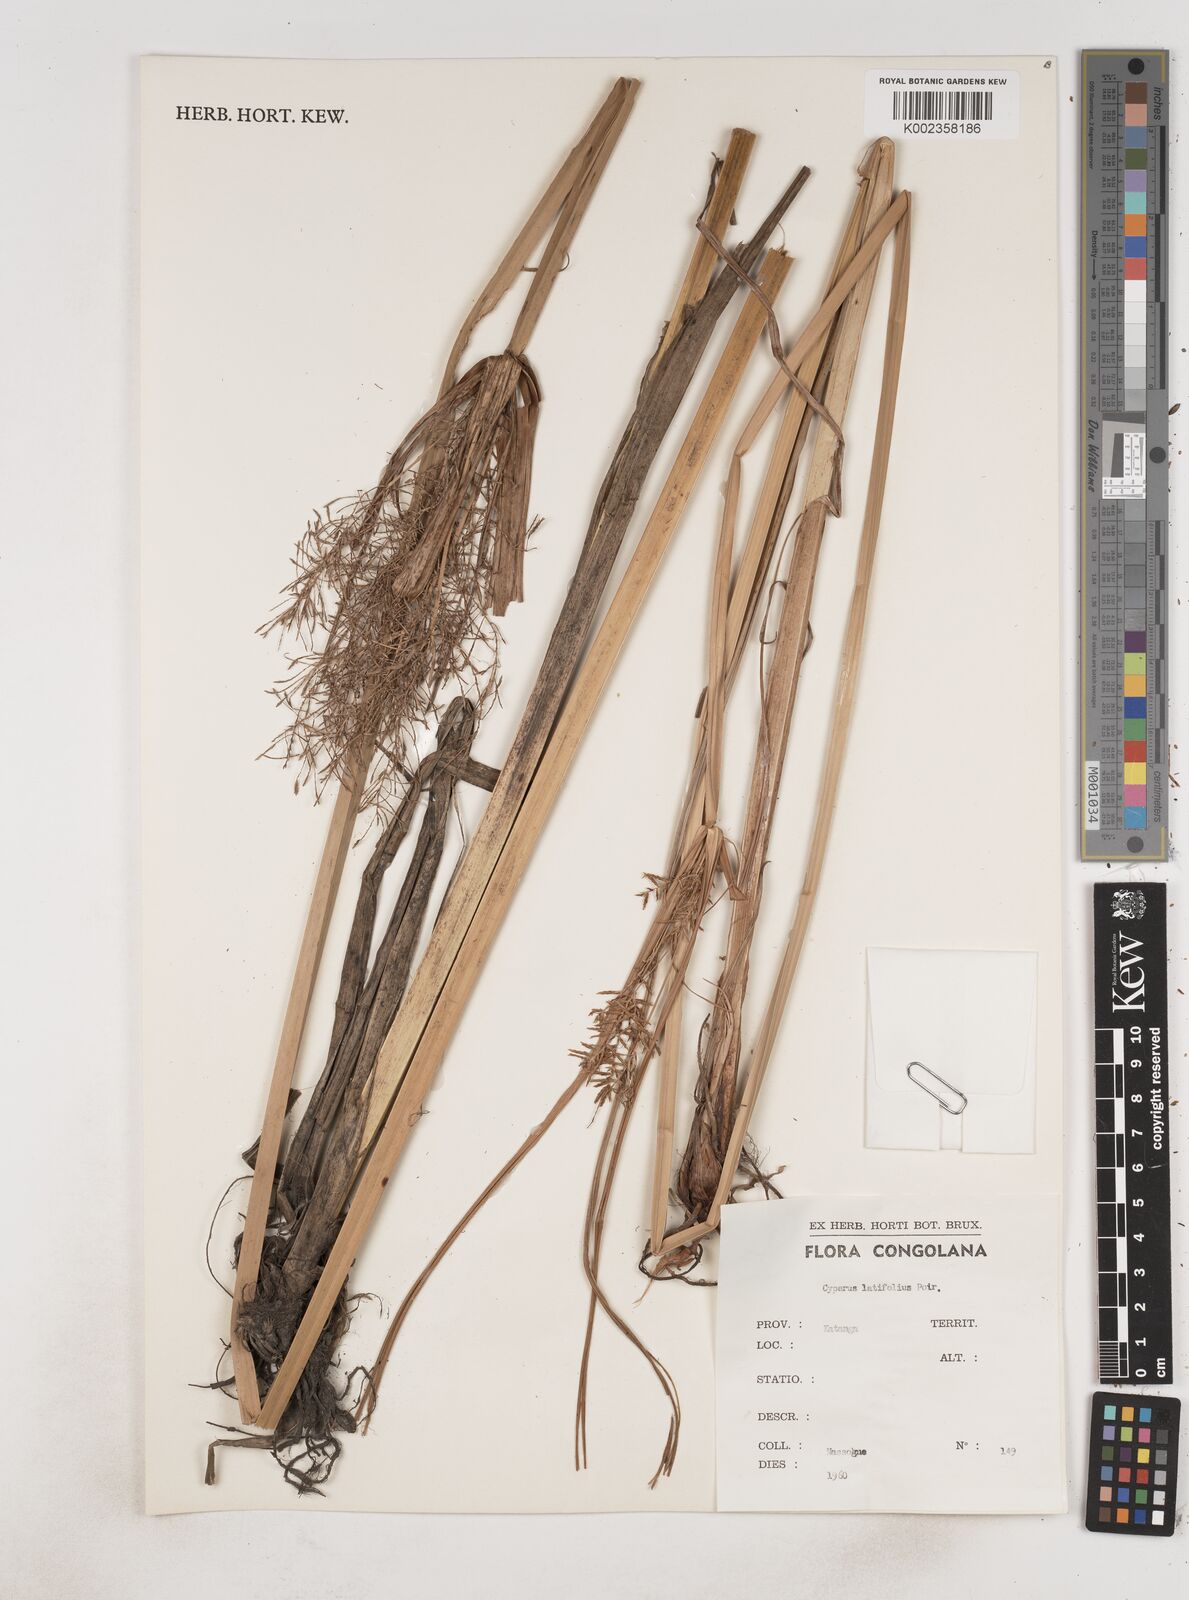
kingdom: Plantae
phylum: Tracheophyta
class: Liliopsida
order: Poales
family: Cyperaceae
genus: Cyperus
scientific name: Cyperus latifolius
